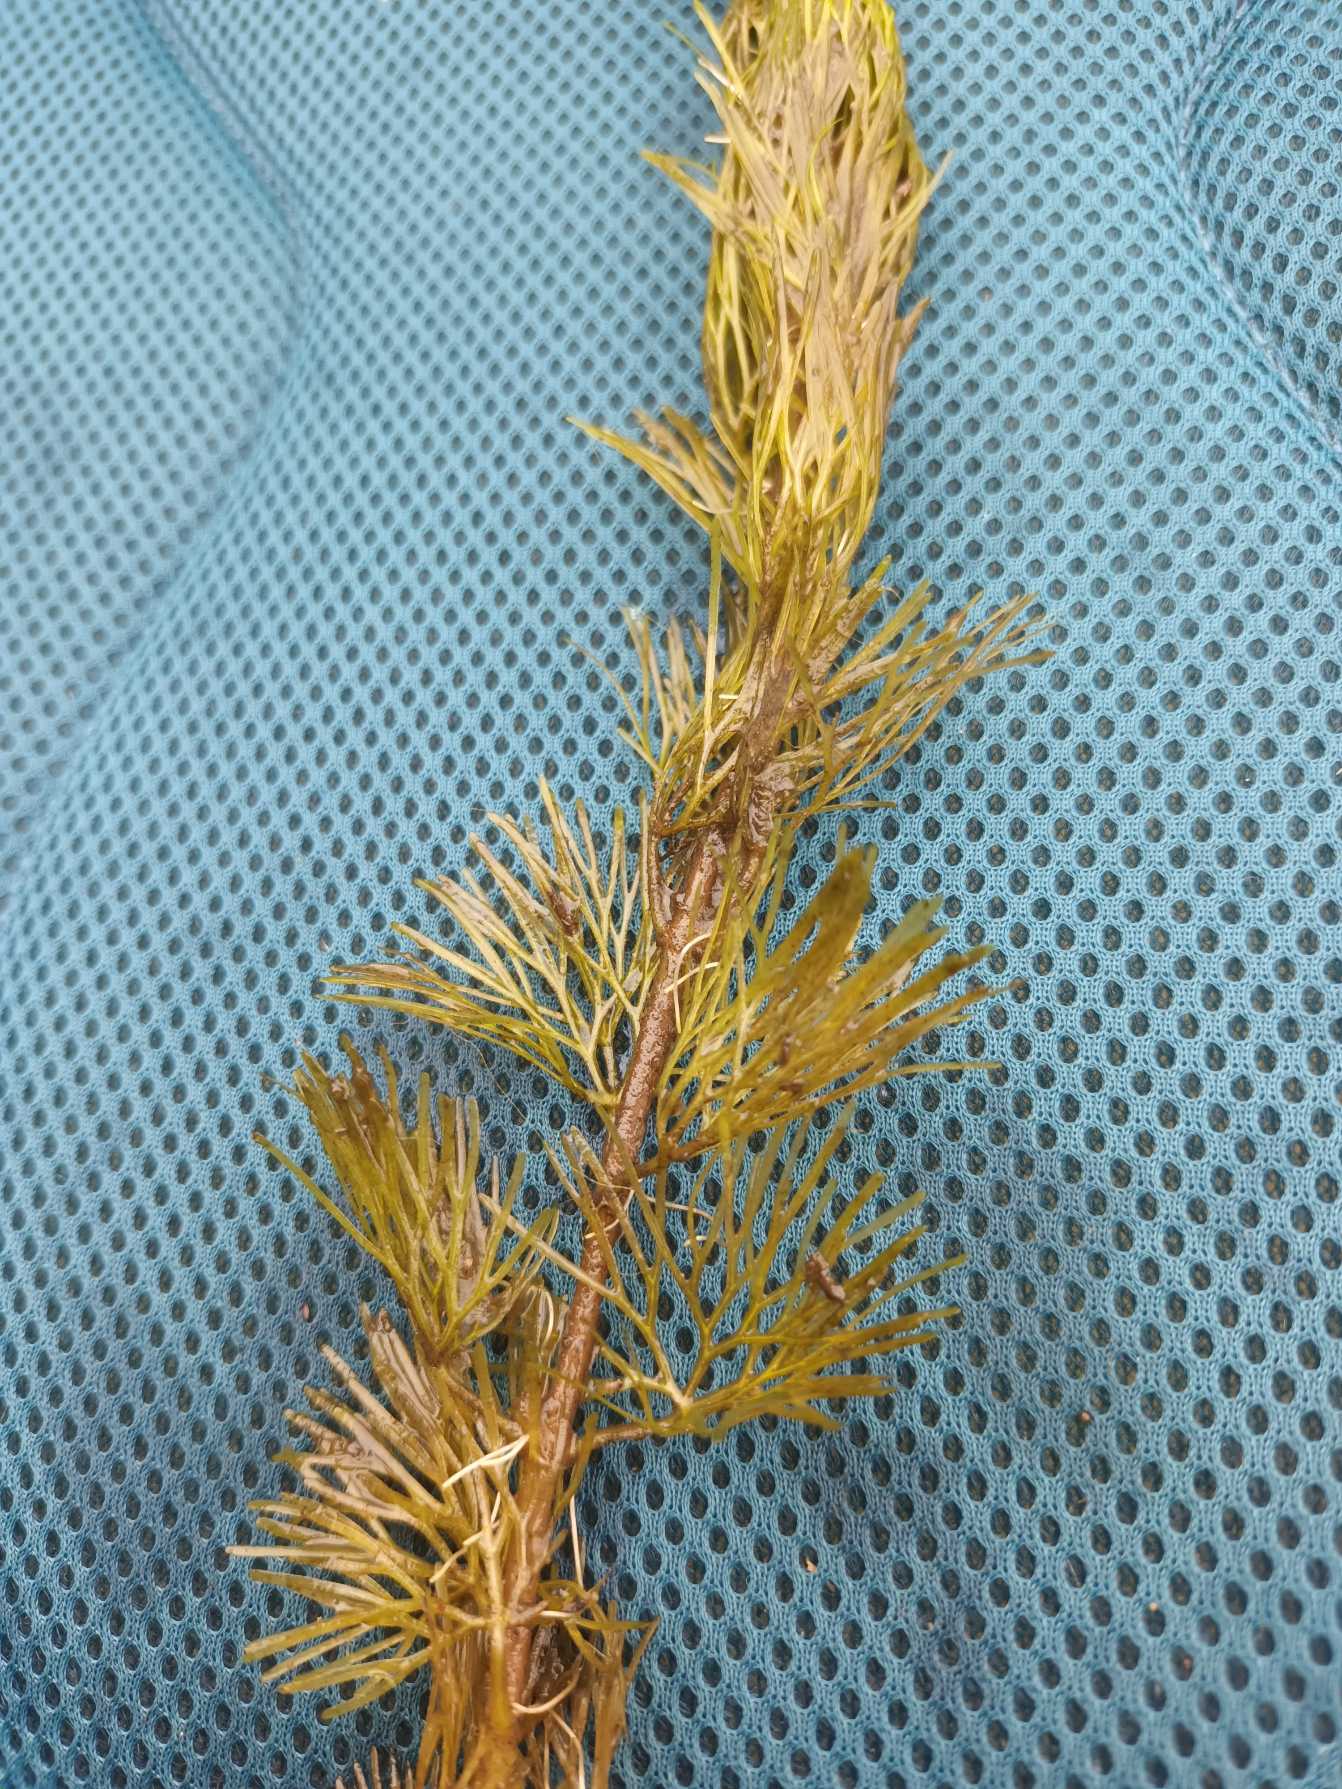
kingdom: Plantae
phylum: Tracheophyta
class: Magnoliopsida
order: Nymphaeales
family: Cabombaceae
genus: Cabomba
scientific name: Cabomba caroliniana
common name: Grøn cabomba
